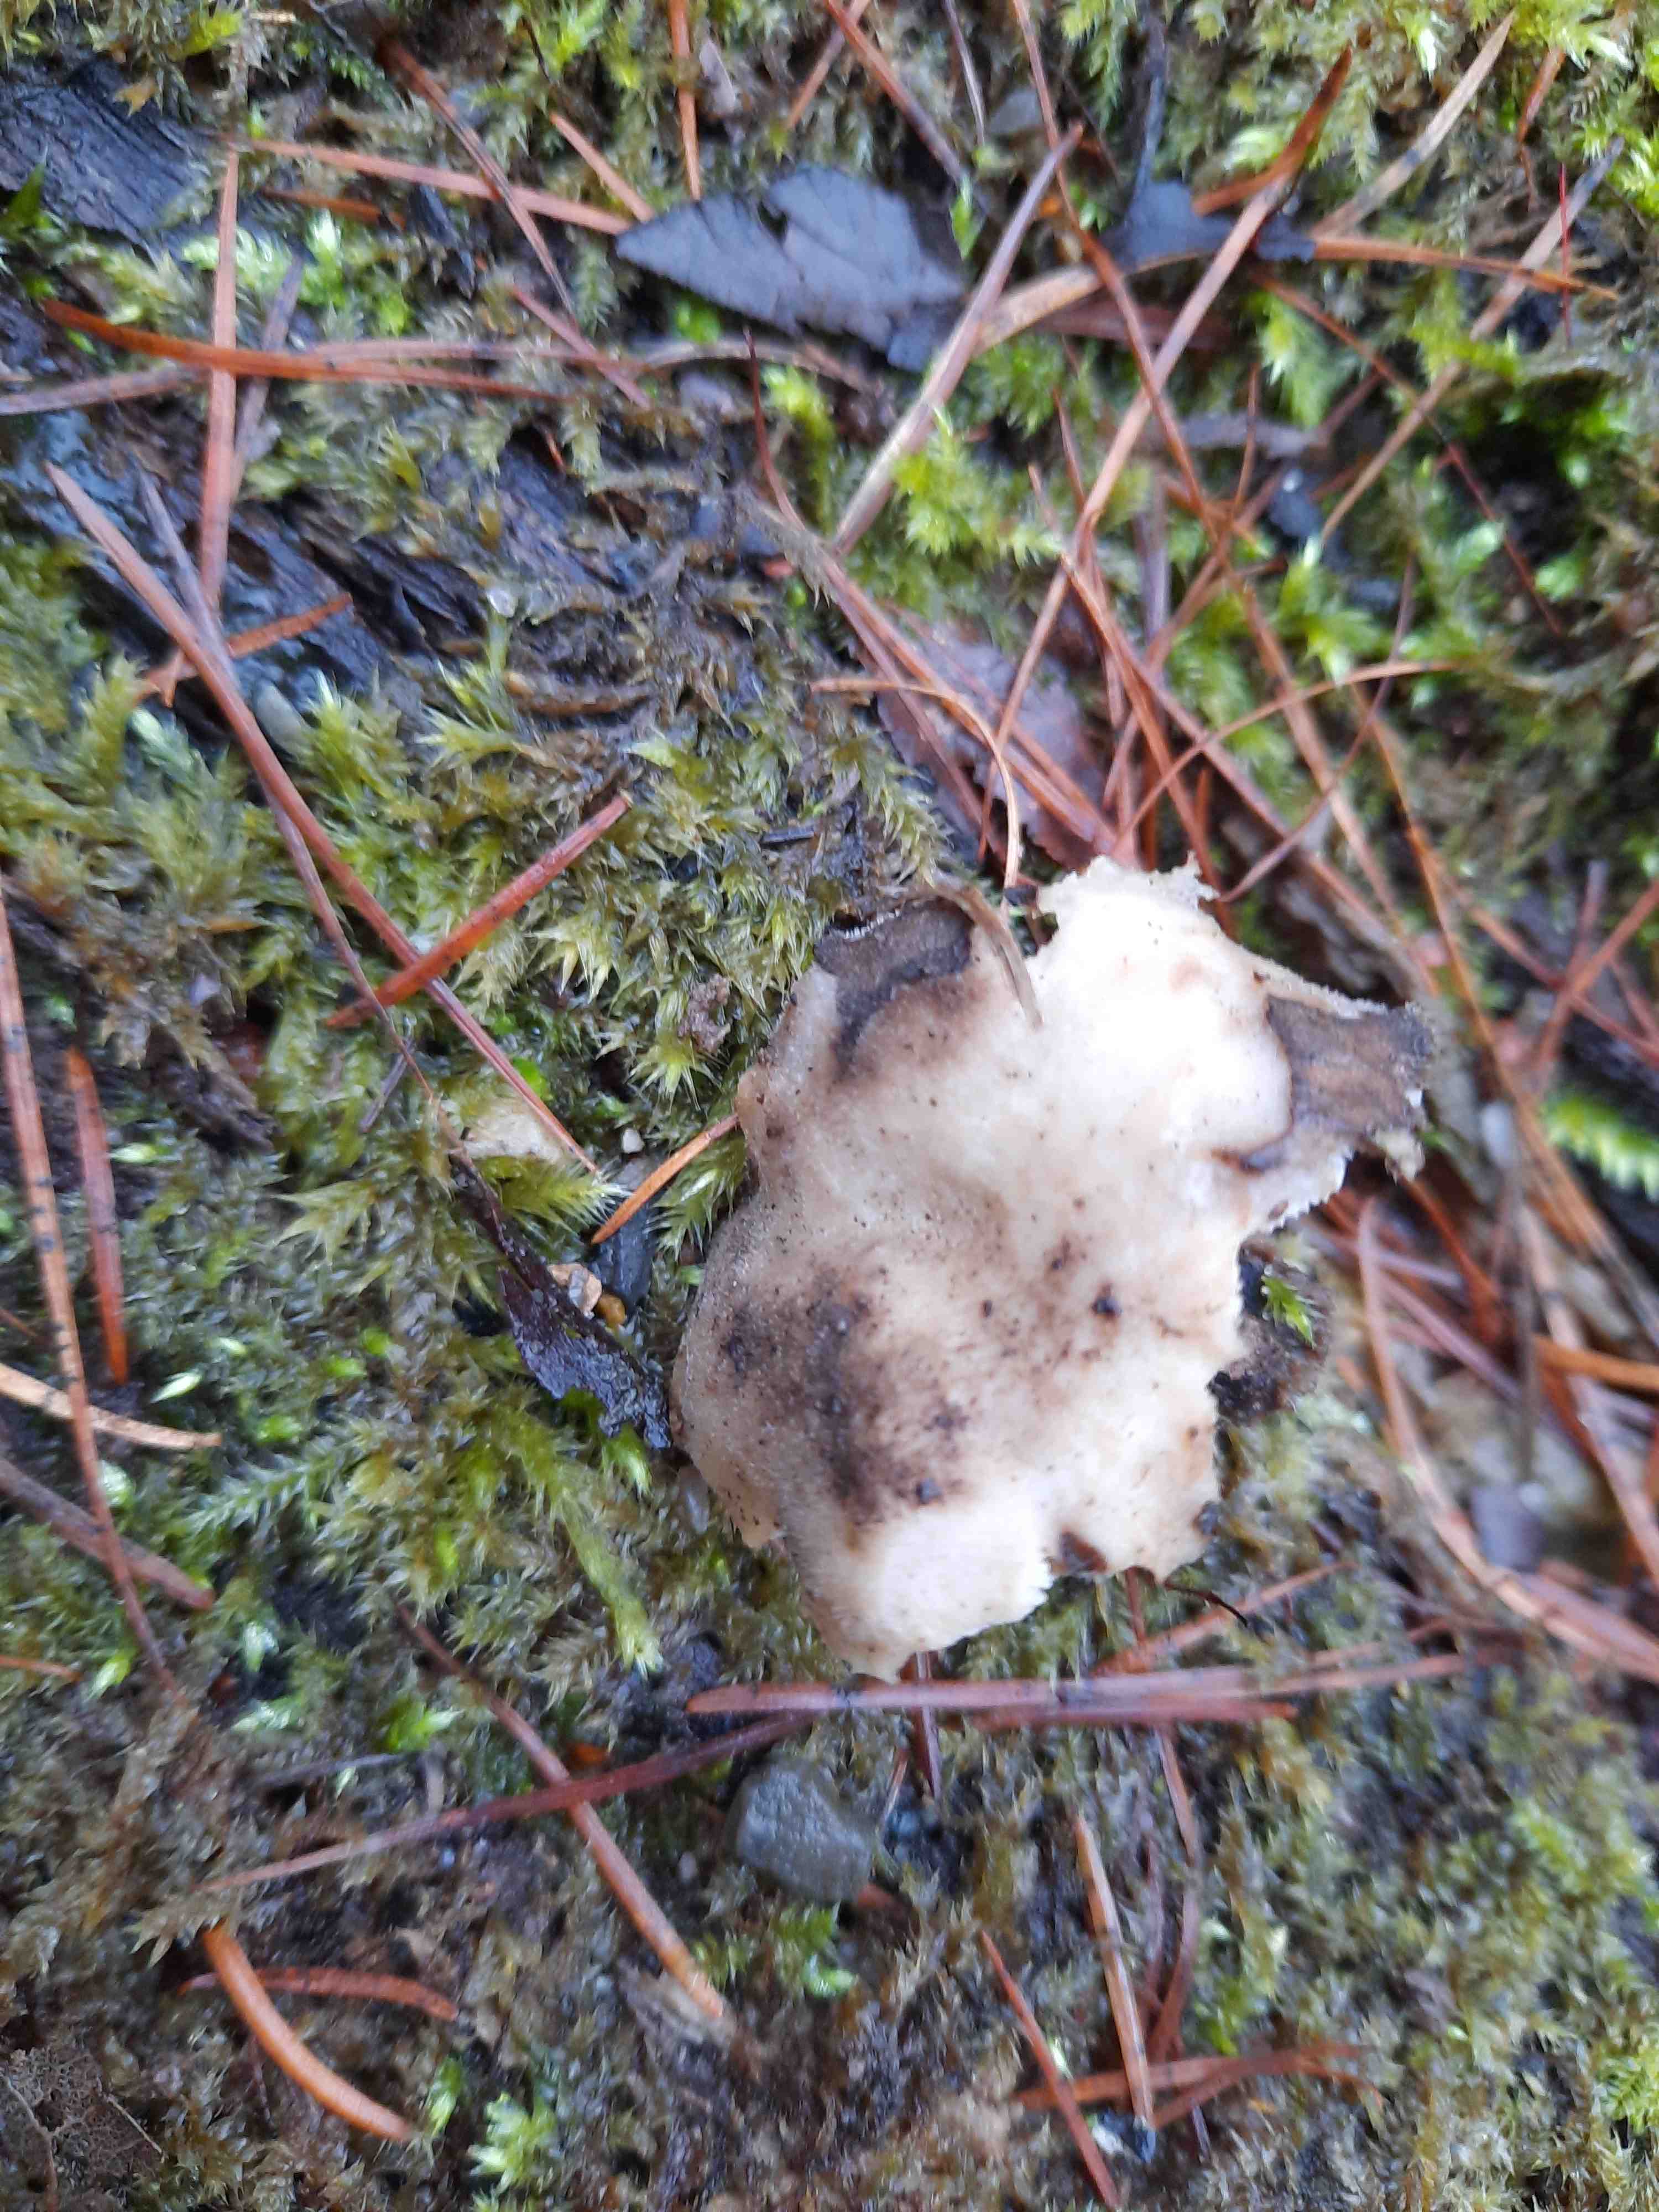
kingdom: Fungi
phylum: Basidiomycota
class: Agaricomycetes
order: Polyporales
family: Polyporaceae
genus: Lentinus
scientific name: Lentinus brumalis
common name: vinter-stilkporesvamp
